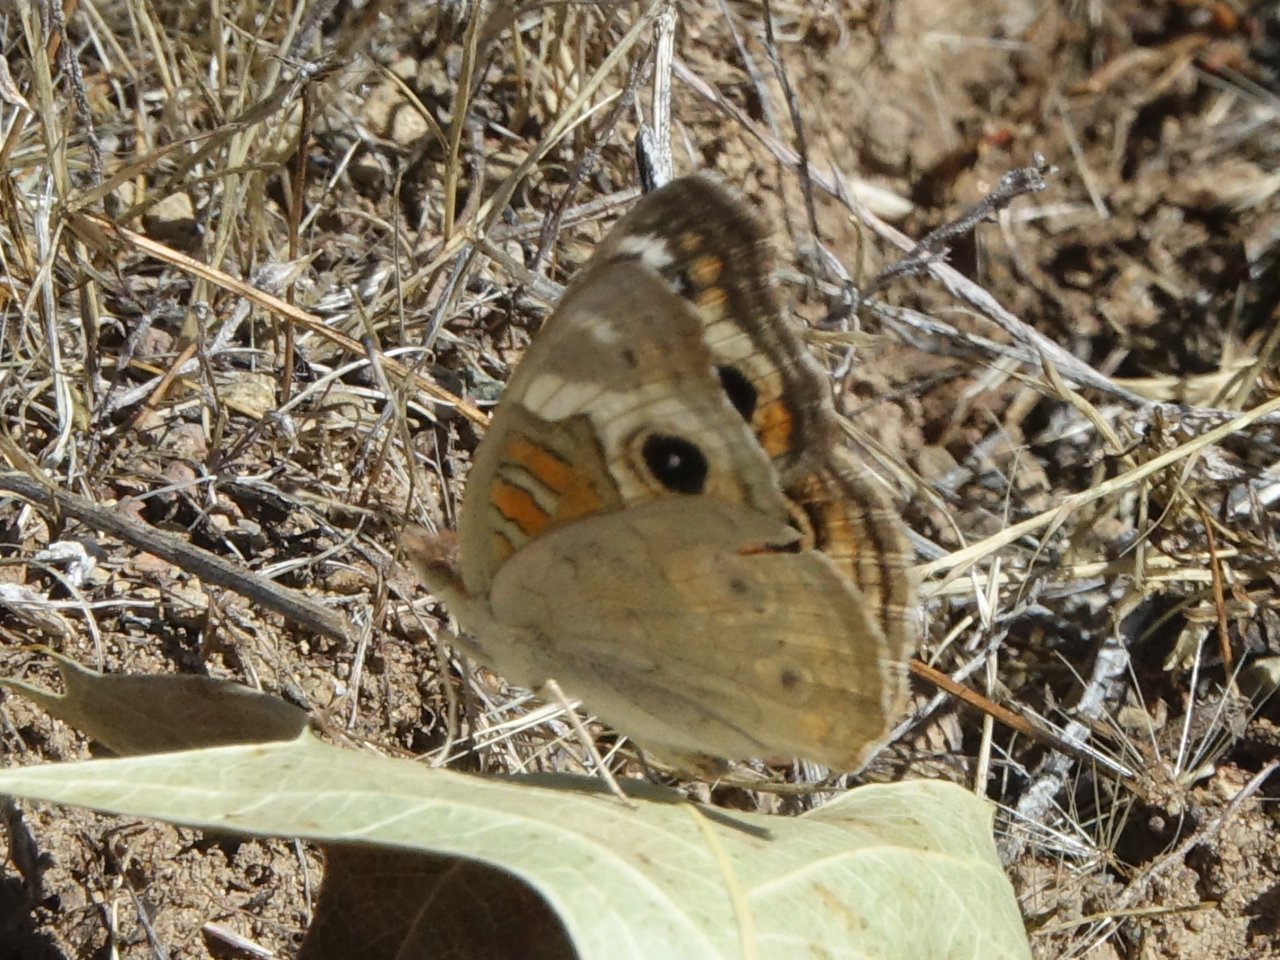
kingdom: Animalia
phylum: Arthropoda
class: Insecta
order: Lepidoptera
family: Nymphalidae
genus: Junonia
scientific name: Junonia coenia
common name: Common Buckeye
